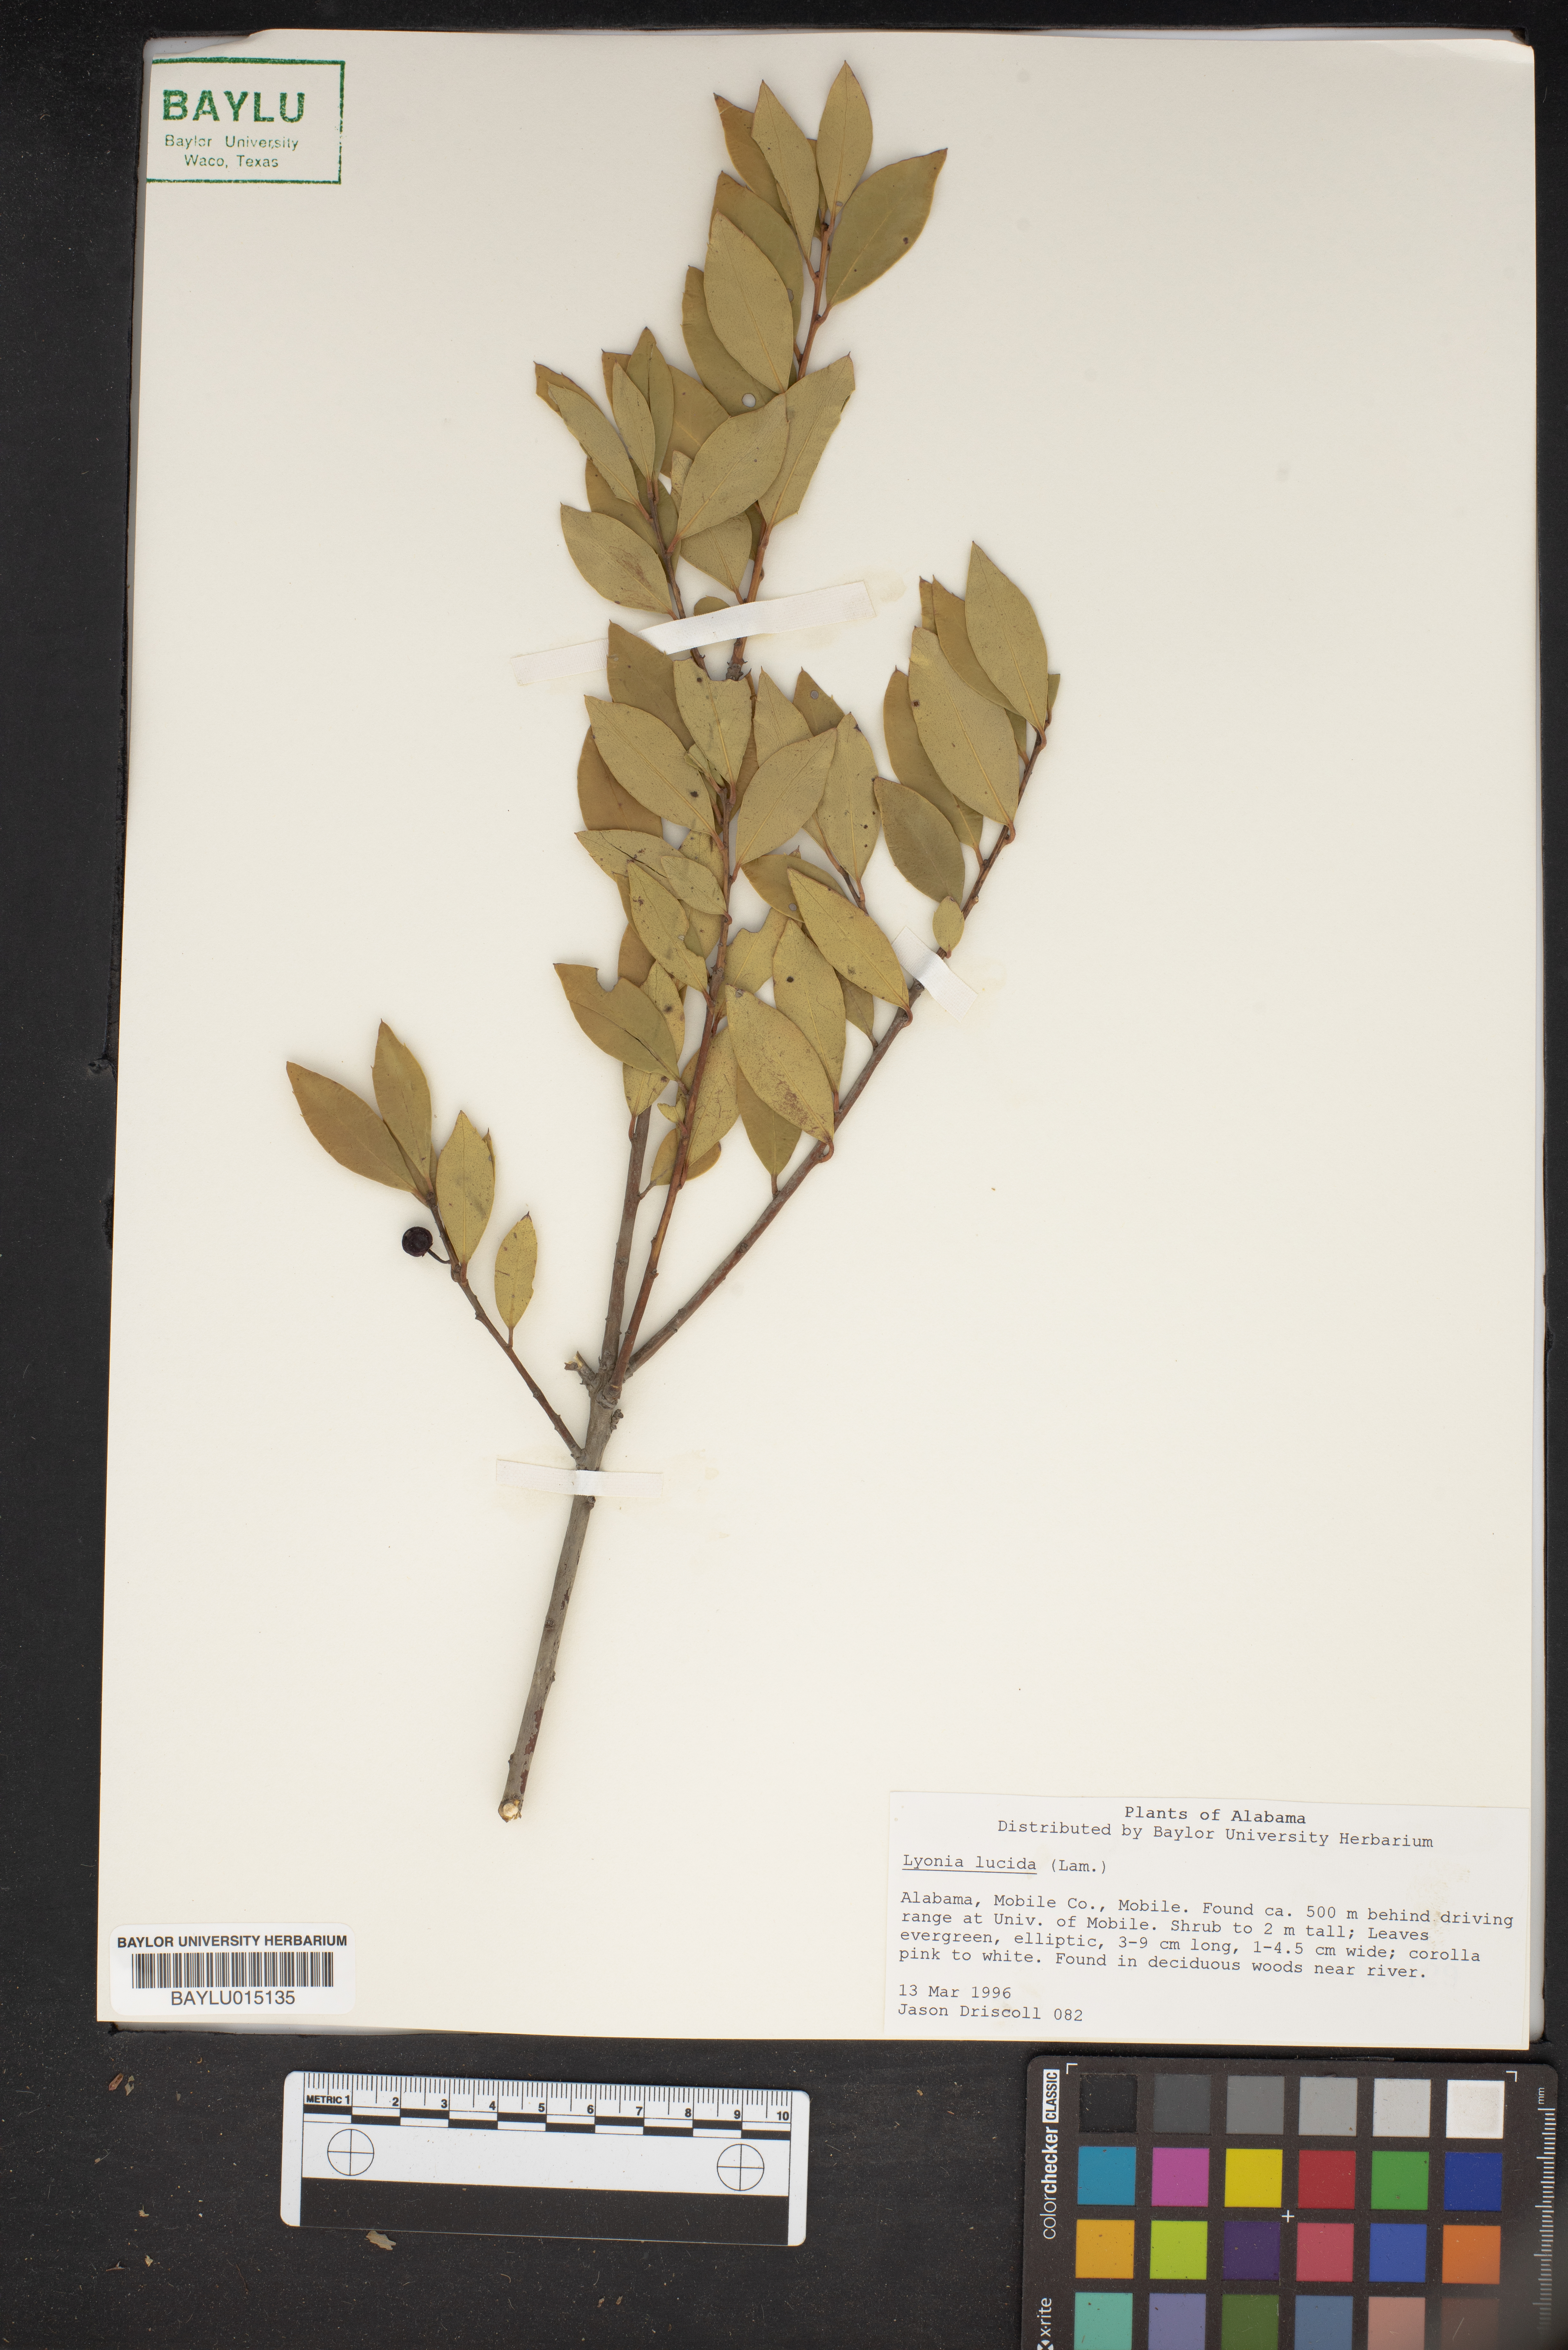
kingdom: Plantae
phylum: Tracheophyta
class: Magnoliopsida
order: Ericales
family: Ericaceae
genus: Lyonia
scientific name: Lyonia lucida
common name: Fetterbush
